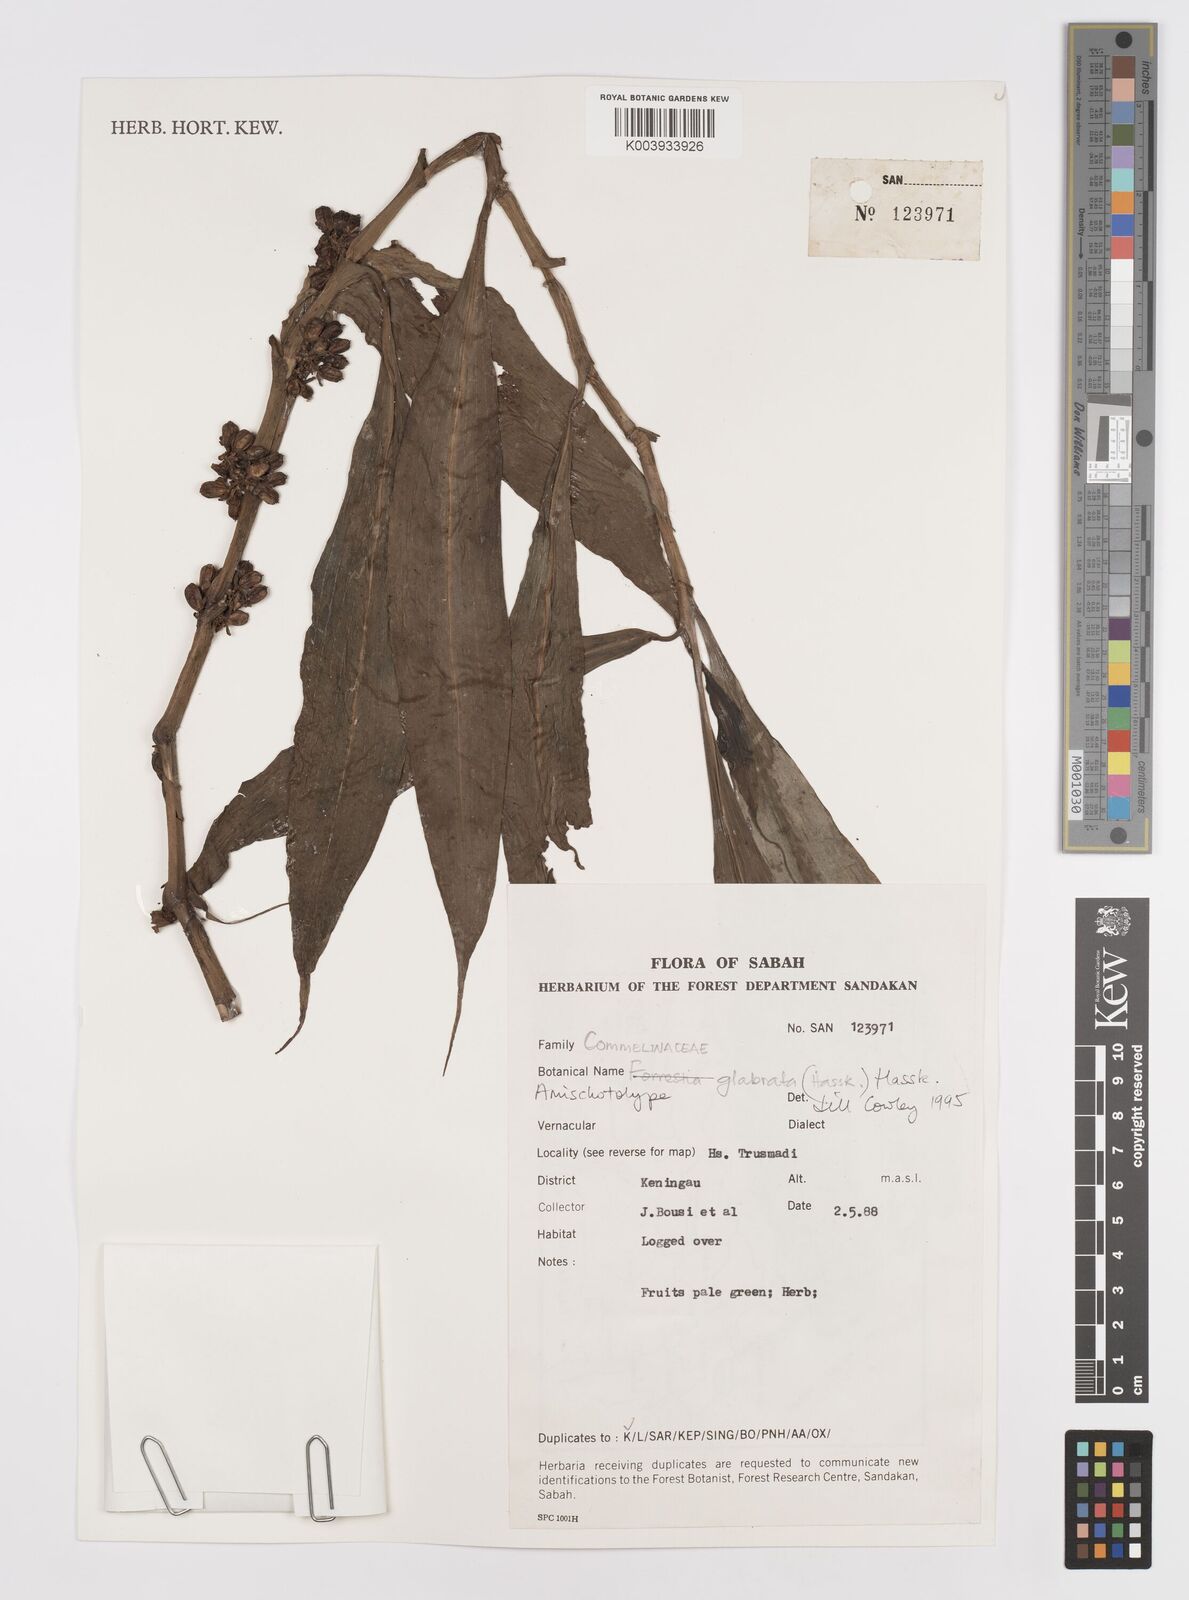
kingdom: Plantae
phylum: Tracheophyta
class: Liliopsida
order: Commelinales
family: Commelinaceae
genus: Amischotolype
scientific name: Amischotolype glabrata
